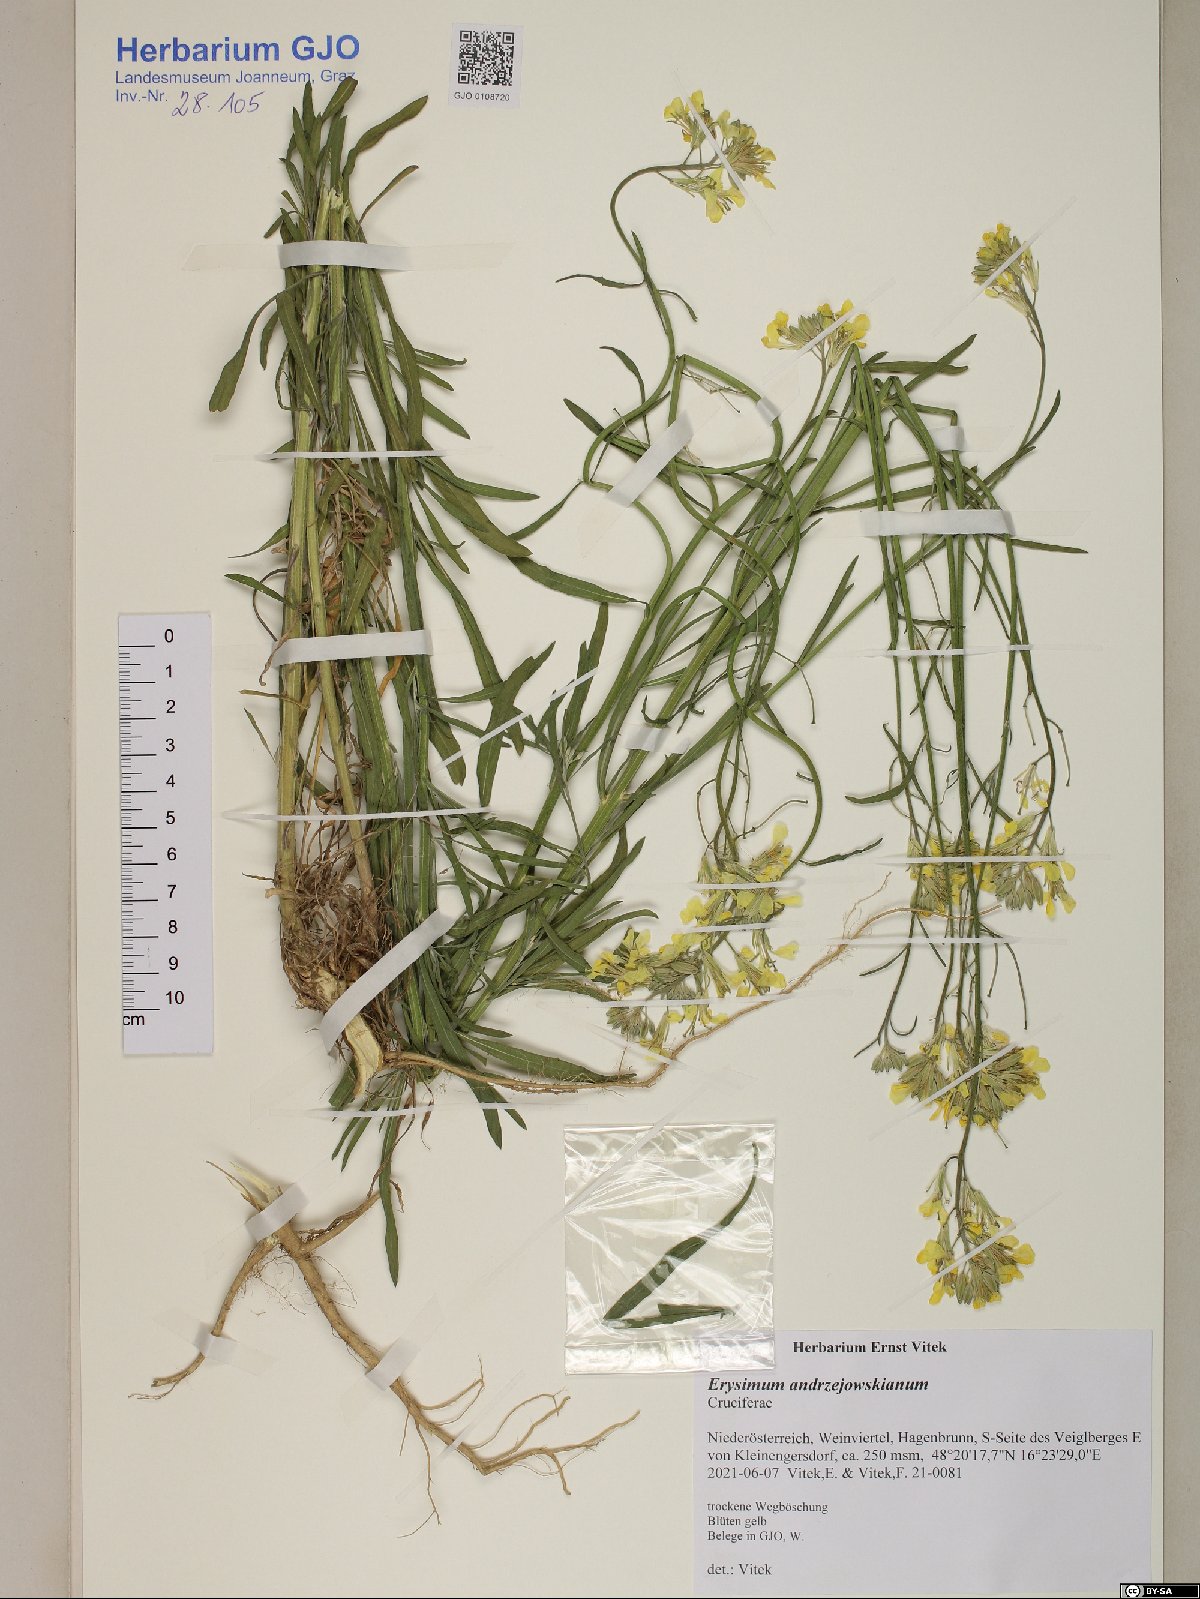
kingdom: Plantae
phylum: Tracheophyta
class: Magnoliopsida
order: Brassicales
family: Brassicaceae
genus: Erysimum
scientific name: Erysimum andrzejowskianum
